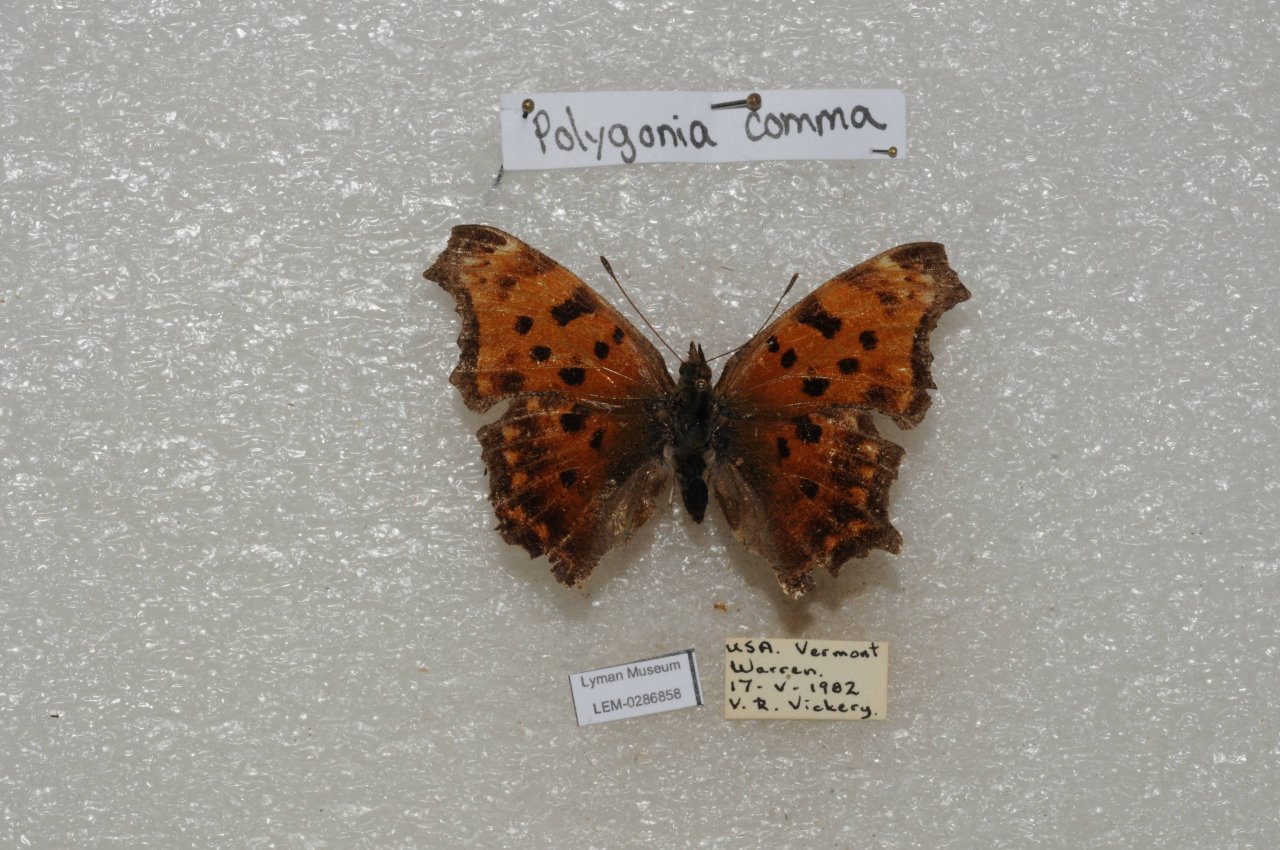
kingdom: Animalia
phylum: Arthropoda
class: Insecta
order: Lepidoptera
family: Nymphalidae
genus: Polygonia
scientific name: Polygonia comma
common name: Eastern Comma
